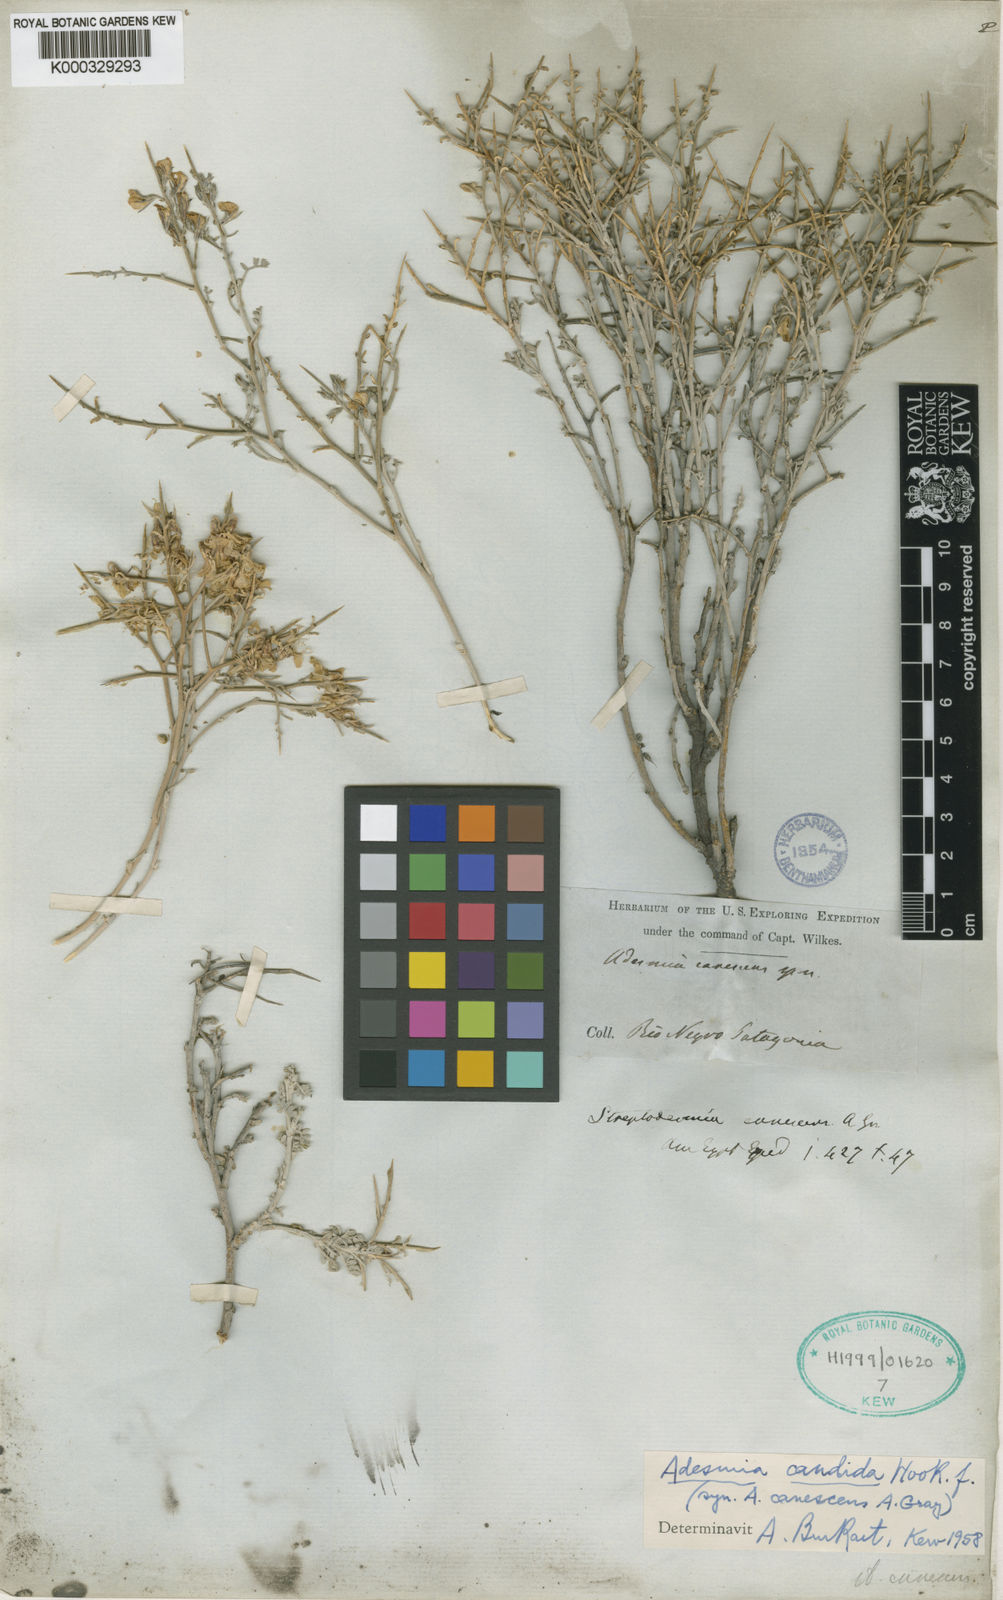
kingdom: Plantae
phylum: Tracheophyta
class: Magnoliopsida
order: Fabales
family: Fabaceae
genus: Adesmia
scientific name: Adesmia candida
